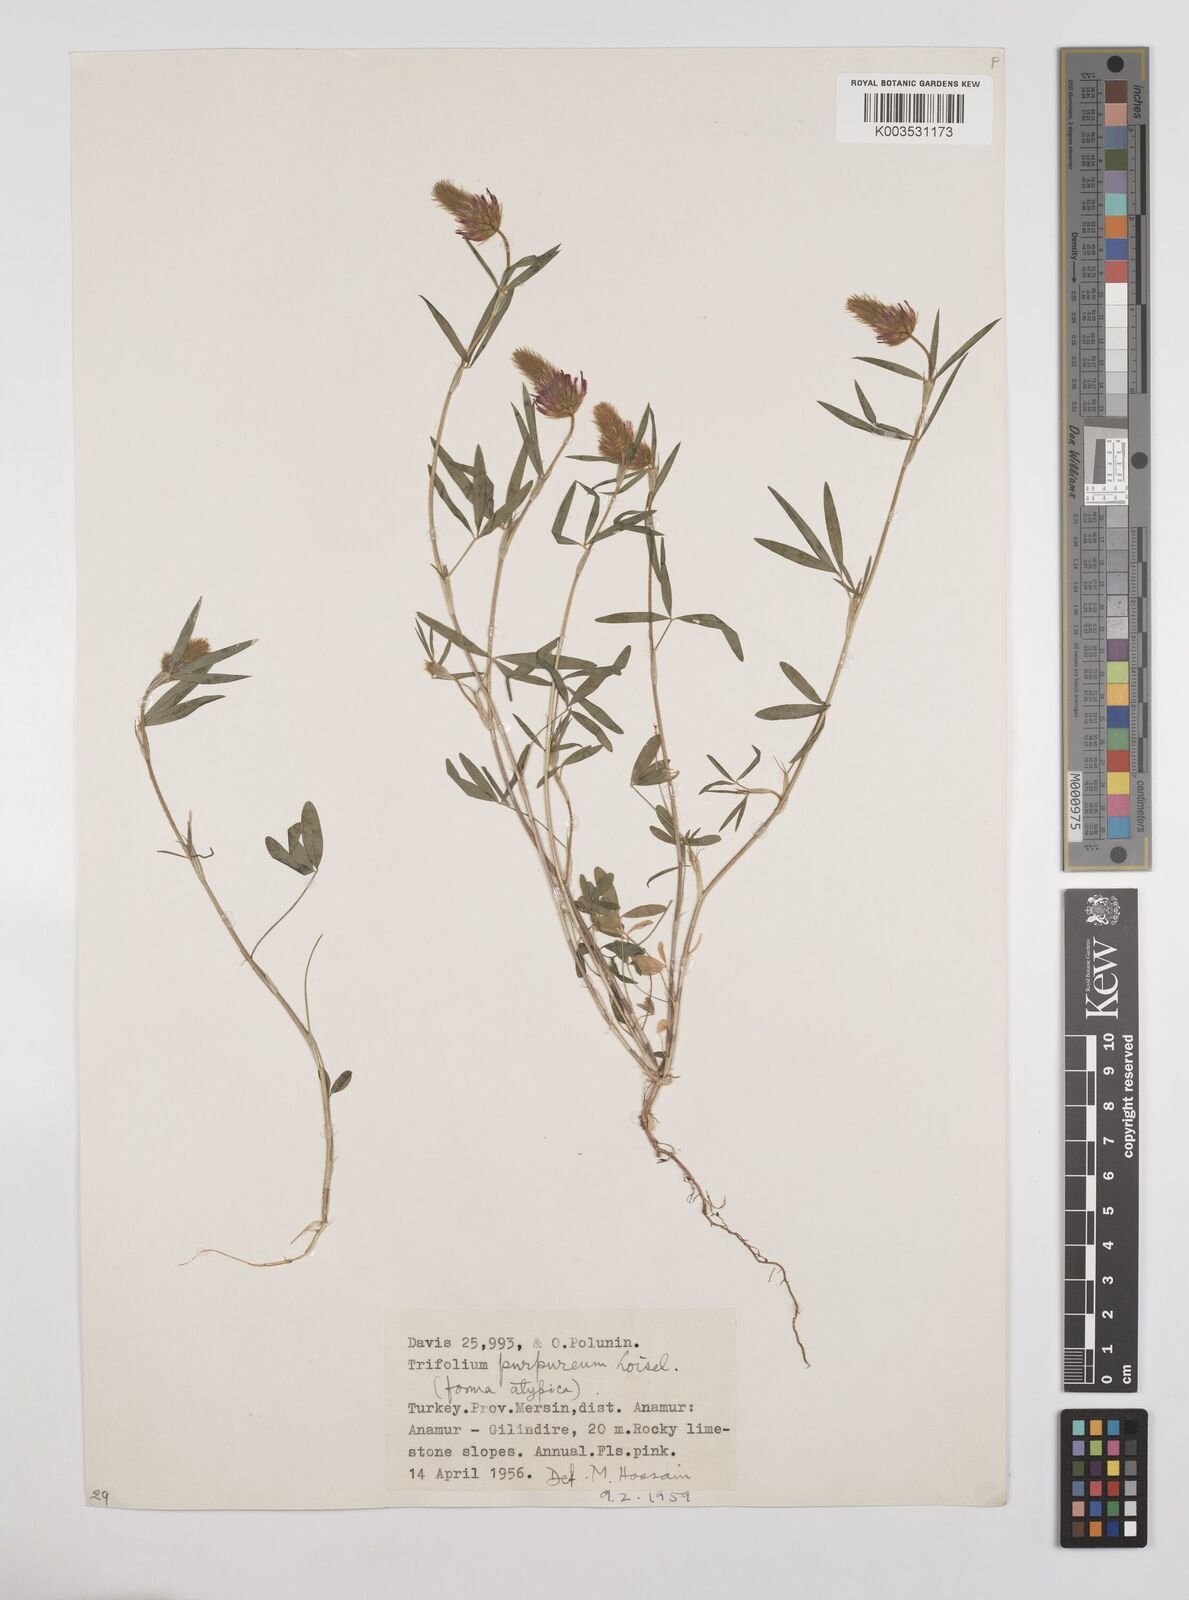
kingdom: Plantae
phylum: Tracheophyta
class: Magnoliopsida
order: Fabales
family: Fabaceae
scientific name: Fabaceae
